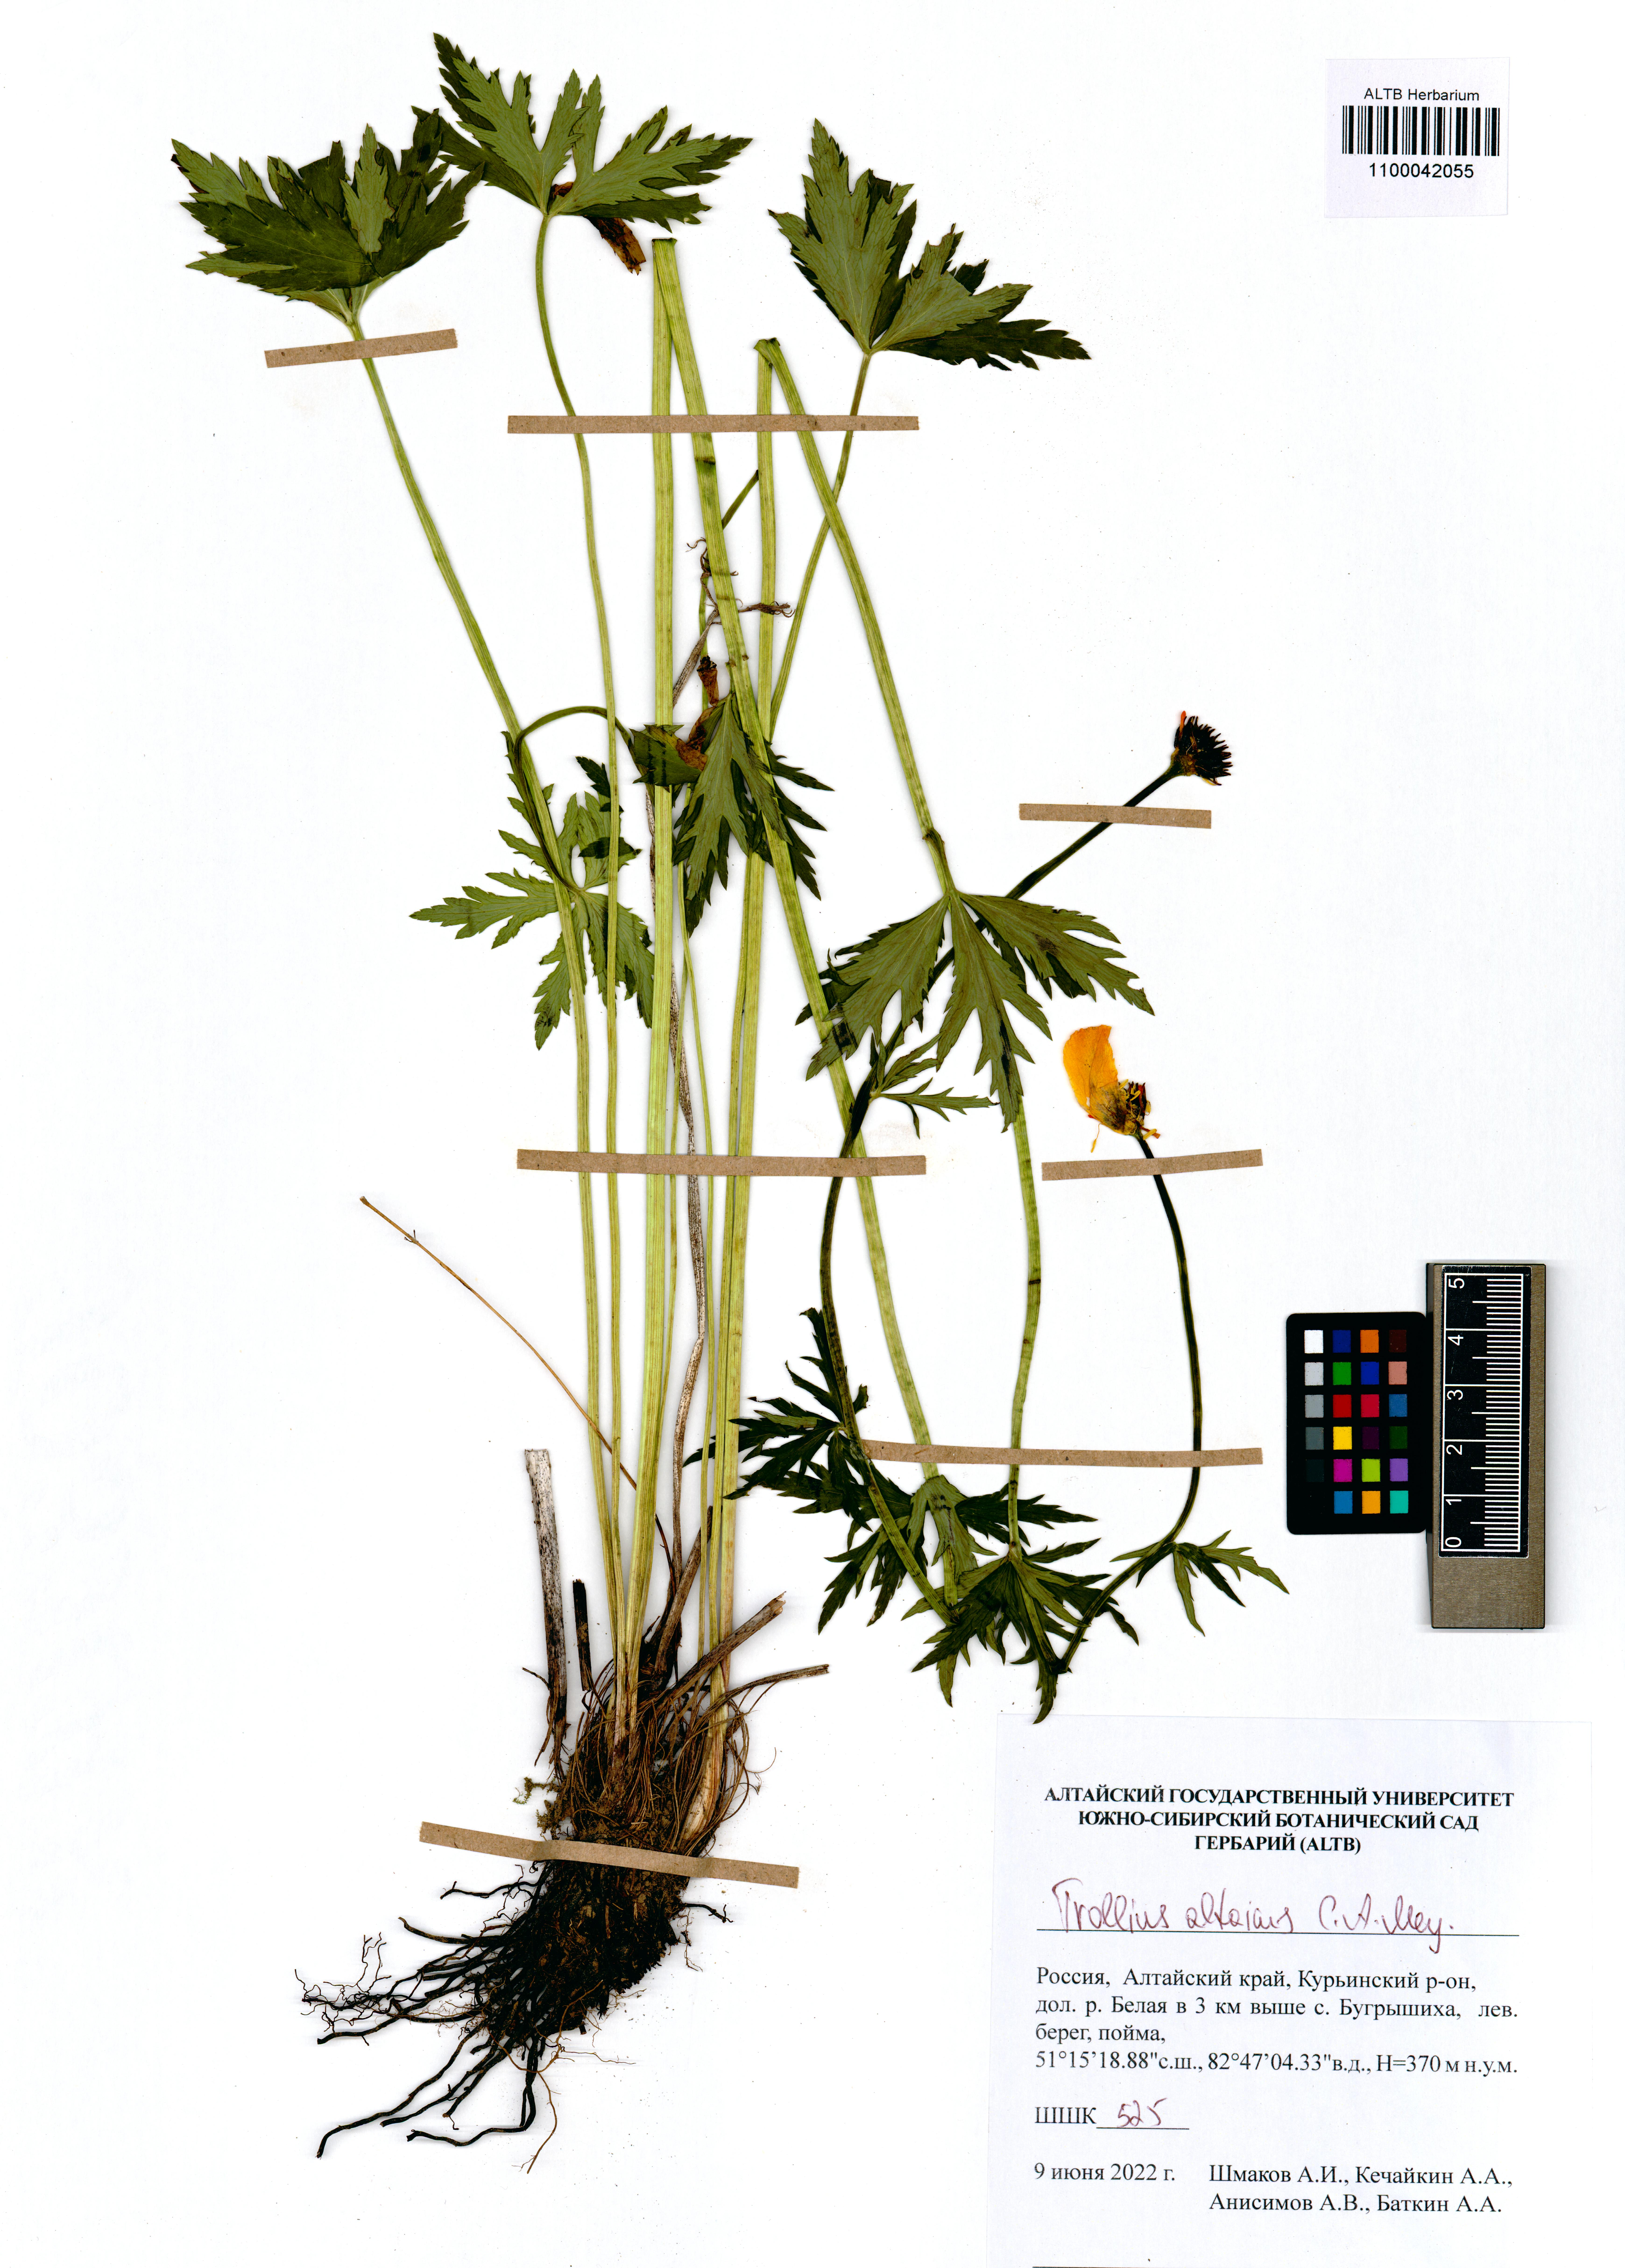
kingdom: Plantae
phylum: Tracheophyta
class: Magnoliopsida
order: Ranunculales
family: Ranunculaceae
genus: Trollius
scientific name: Trollius altaicus
